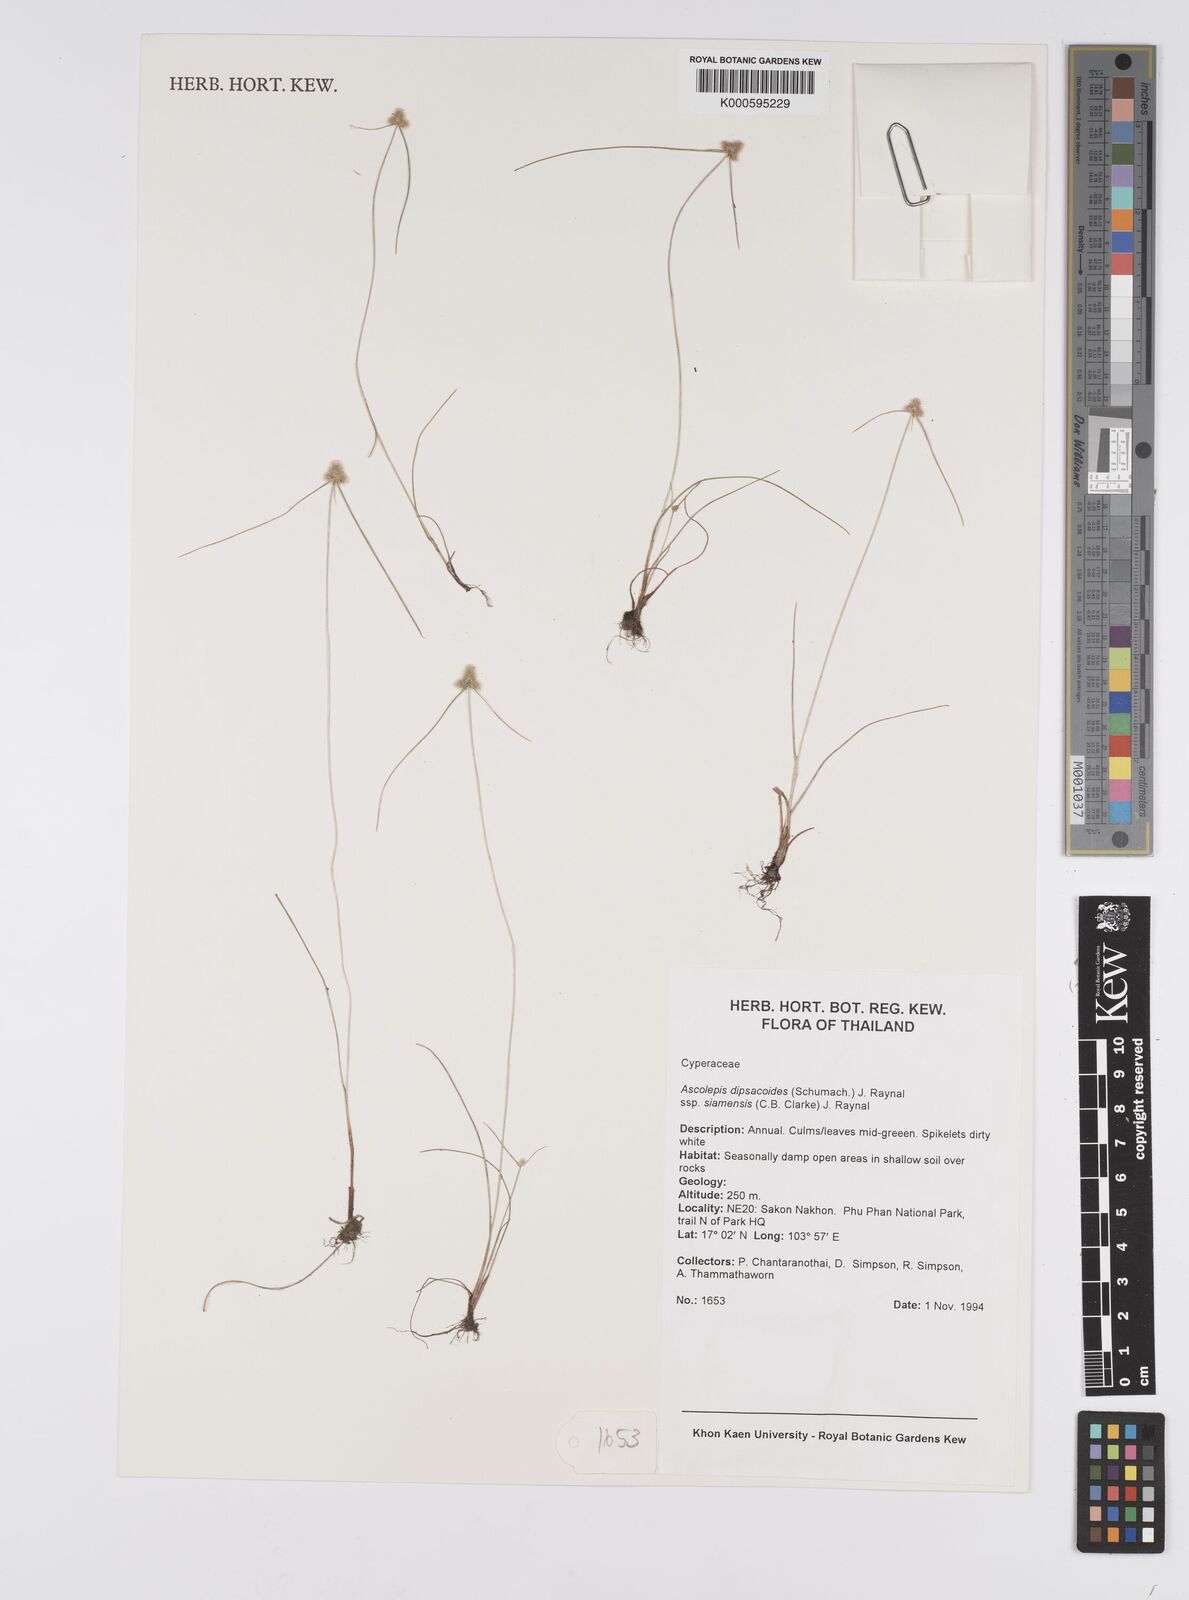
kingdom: Plantae
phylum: Tracheophyta
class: Liliopsida
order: Poales
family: Cyperaceae
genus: Cyperus
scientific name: Cyperus dipsacoides
